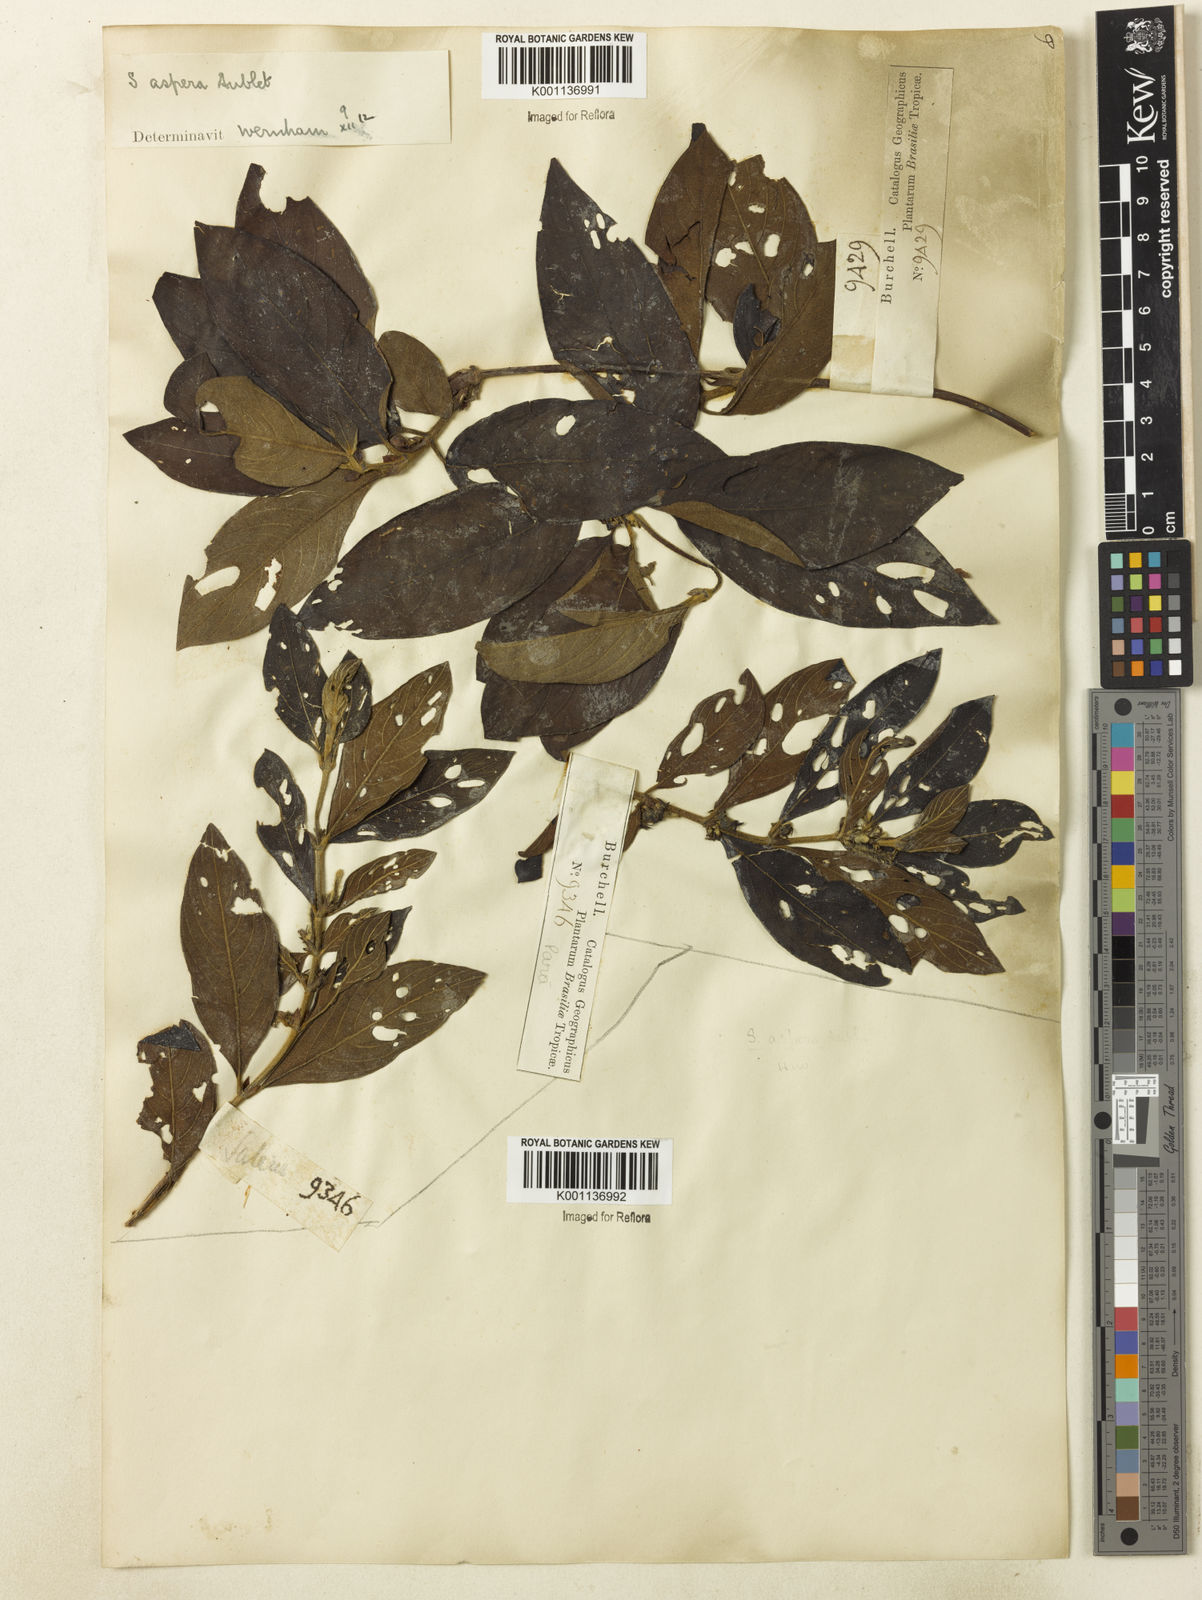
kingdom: Plantae
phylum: Tracheophyta
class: Magnoliopsida
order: Gentianales
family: Rubiaceae
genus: Sabicea
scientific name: Sabicea aspera
